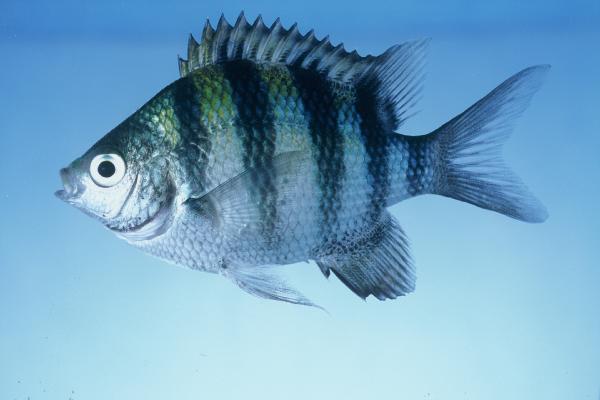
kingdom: Animalia
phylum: Chordata
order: Perciformes
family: Pomacentridae
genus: Abudefduf
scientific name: Abudefduf vaigiensis
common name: Indo-pacific sergeant
